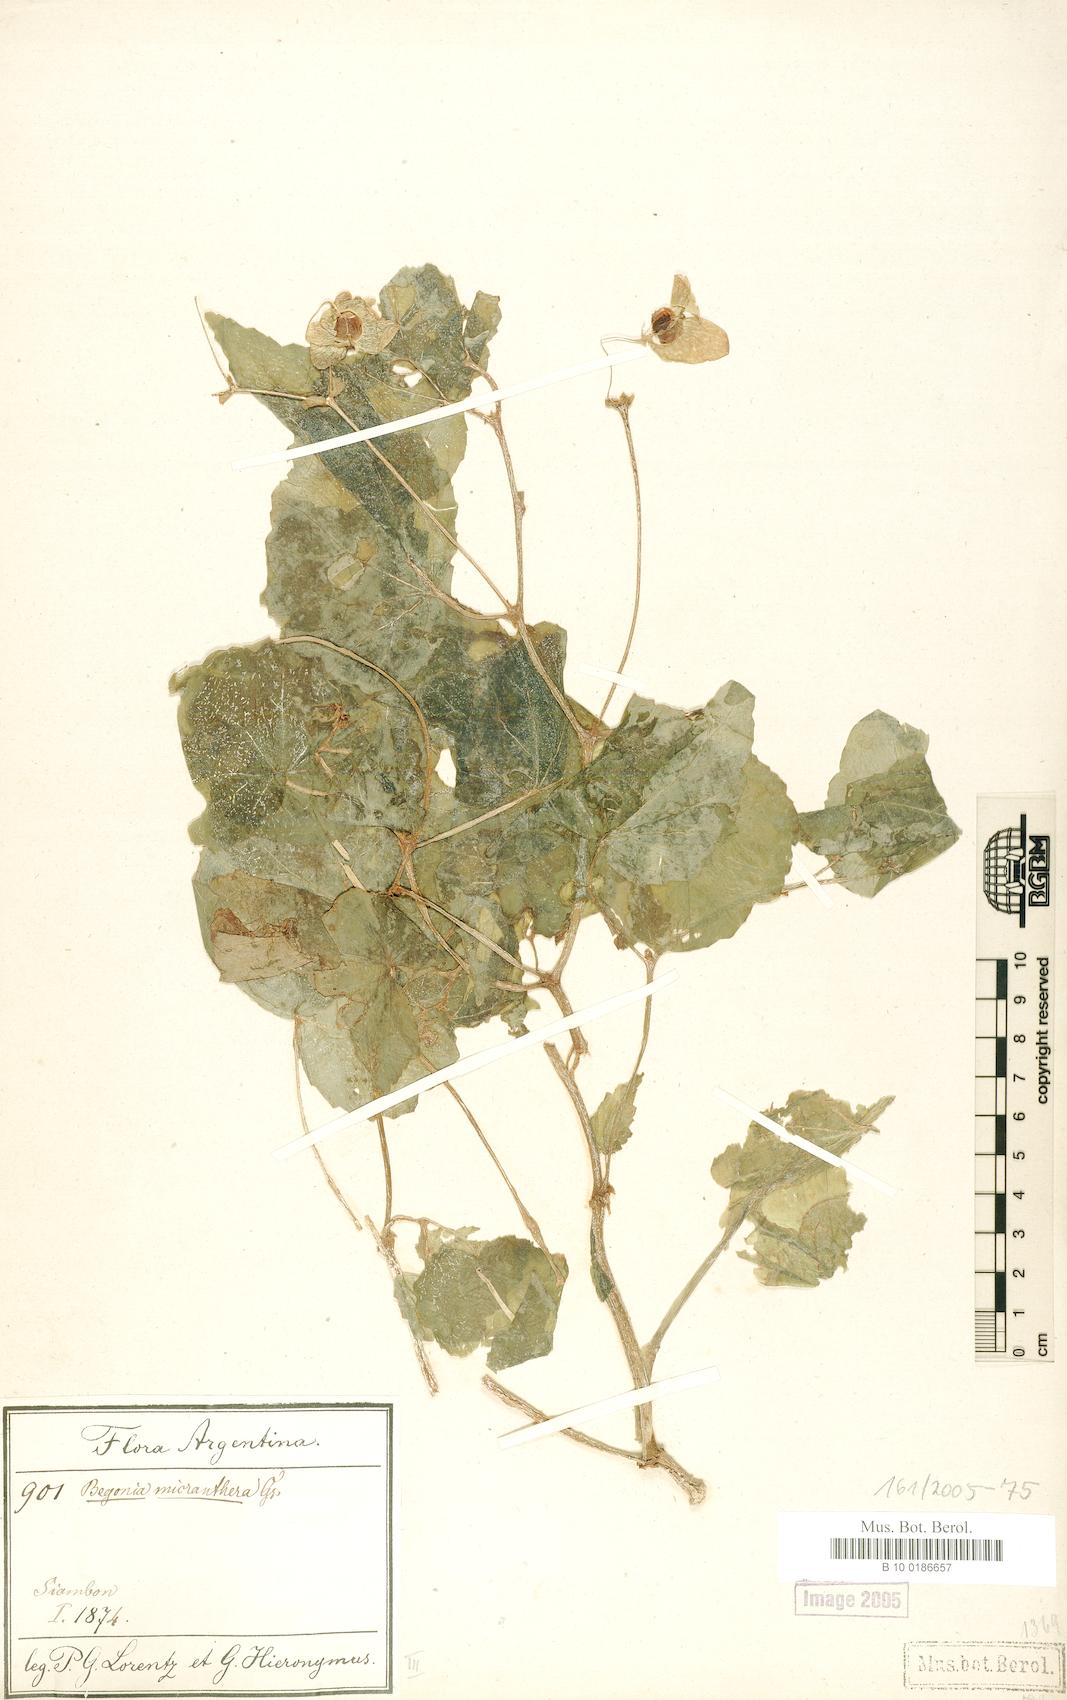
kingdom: Plantae
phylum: Tracheophyta
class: Magnoliopsida
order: Cucurbitales
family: Begoniaceae
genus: Begonia
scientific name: Begonia micranthera
